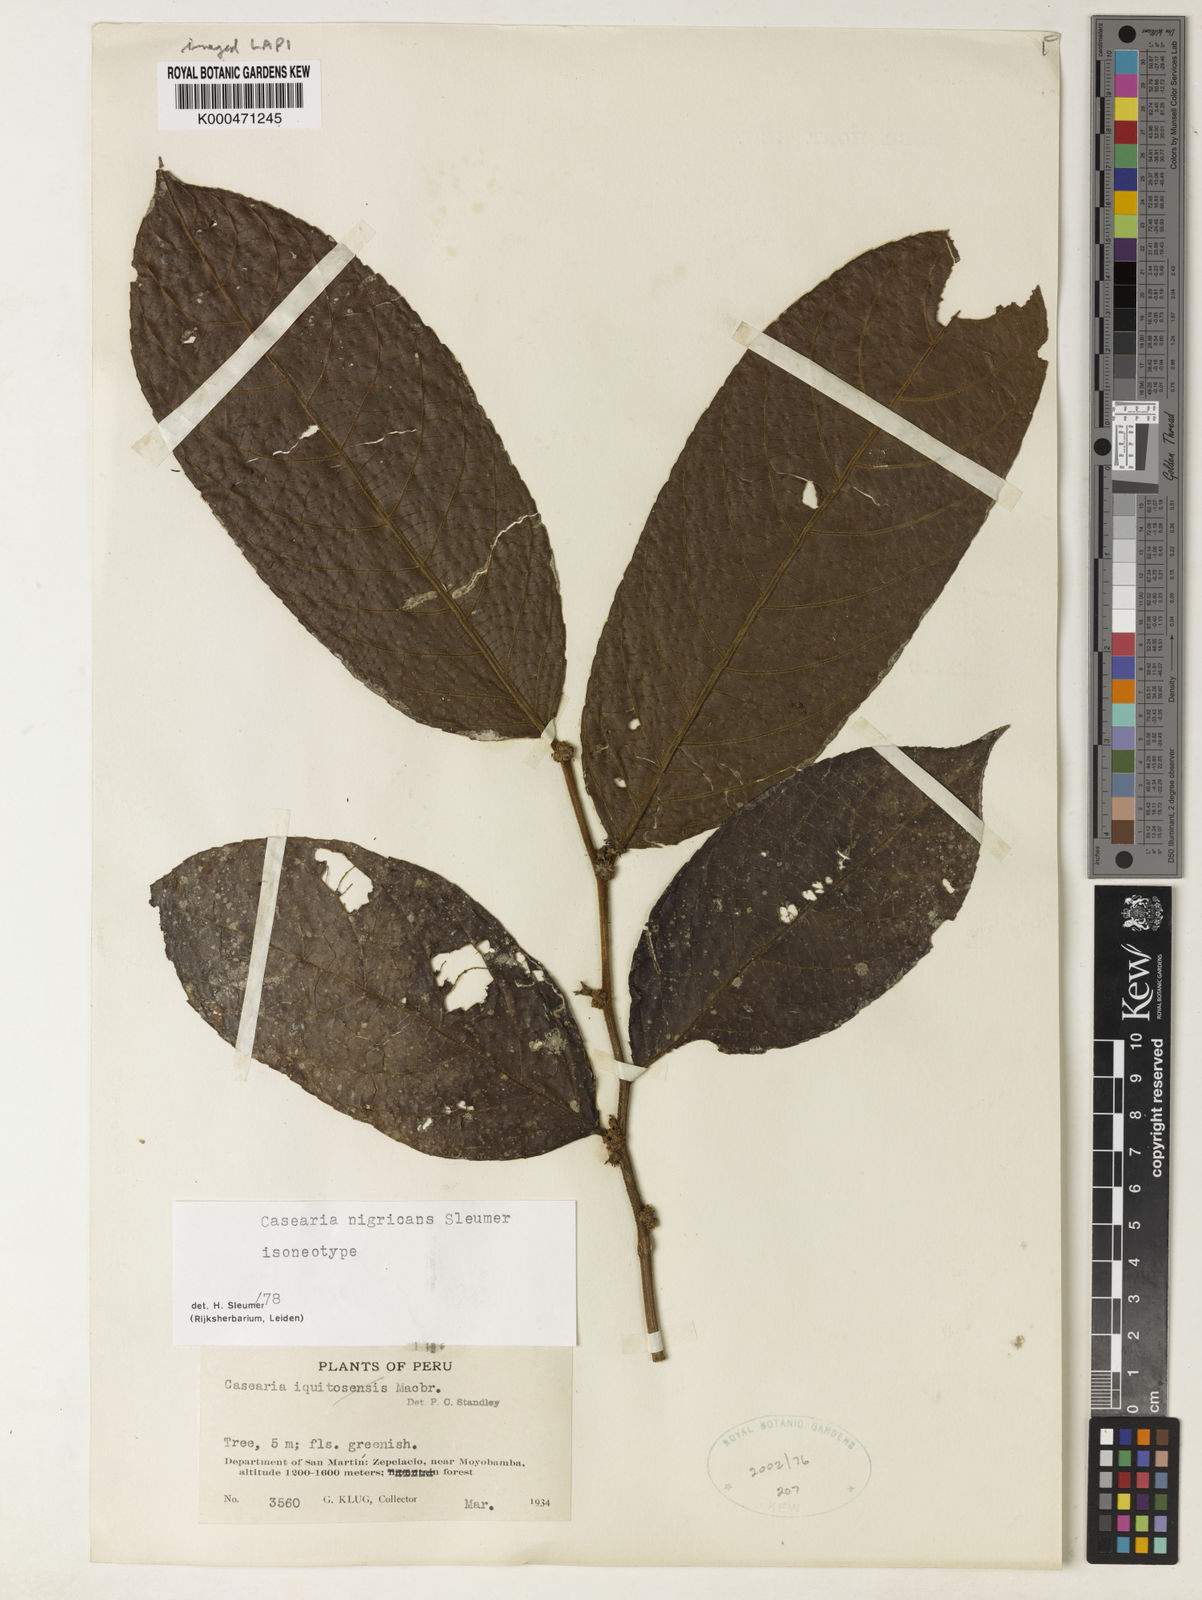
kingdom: Plantae
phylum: Tracheophyta
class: Magnoliopsida
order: Malpighiales
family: Salicaceae
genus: Casearia
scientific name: Casearia nigricans
